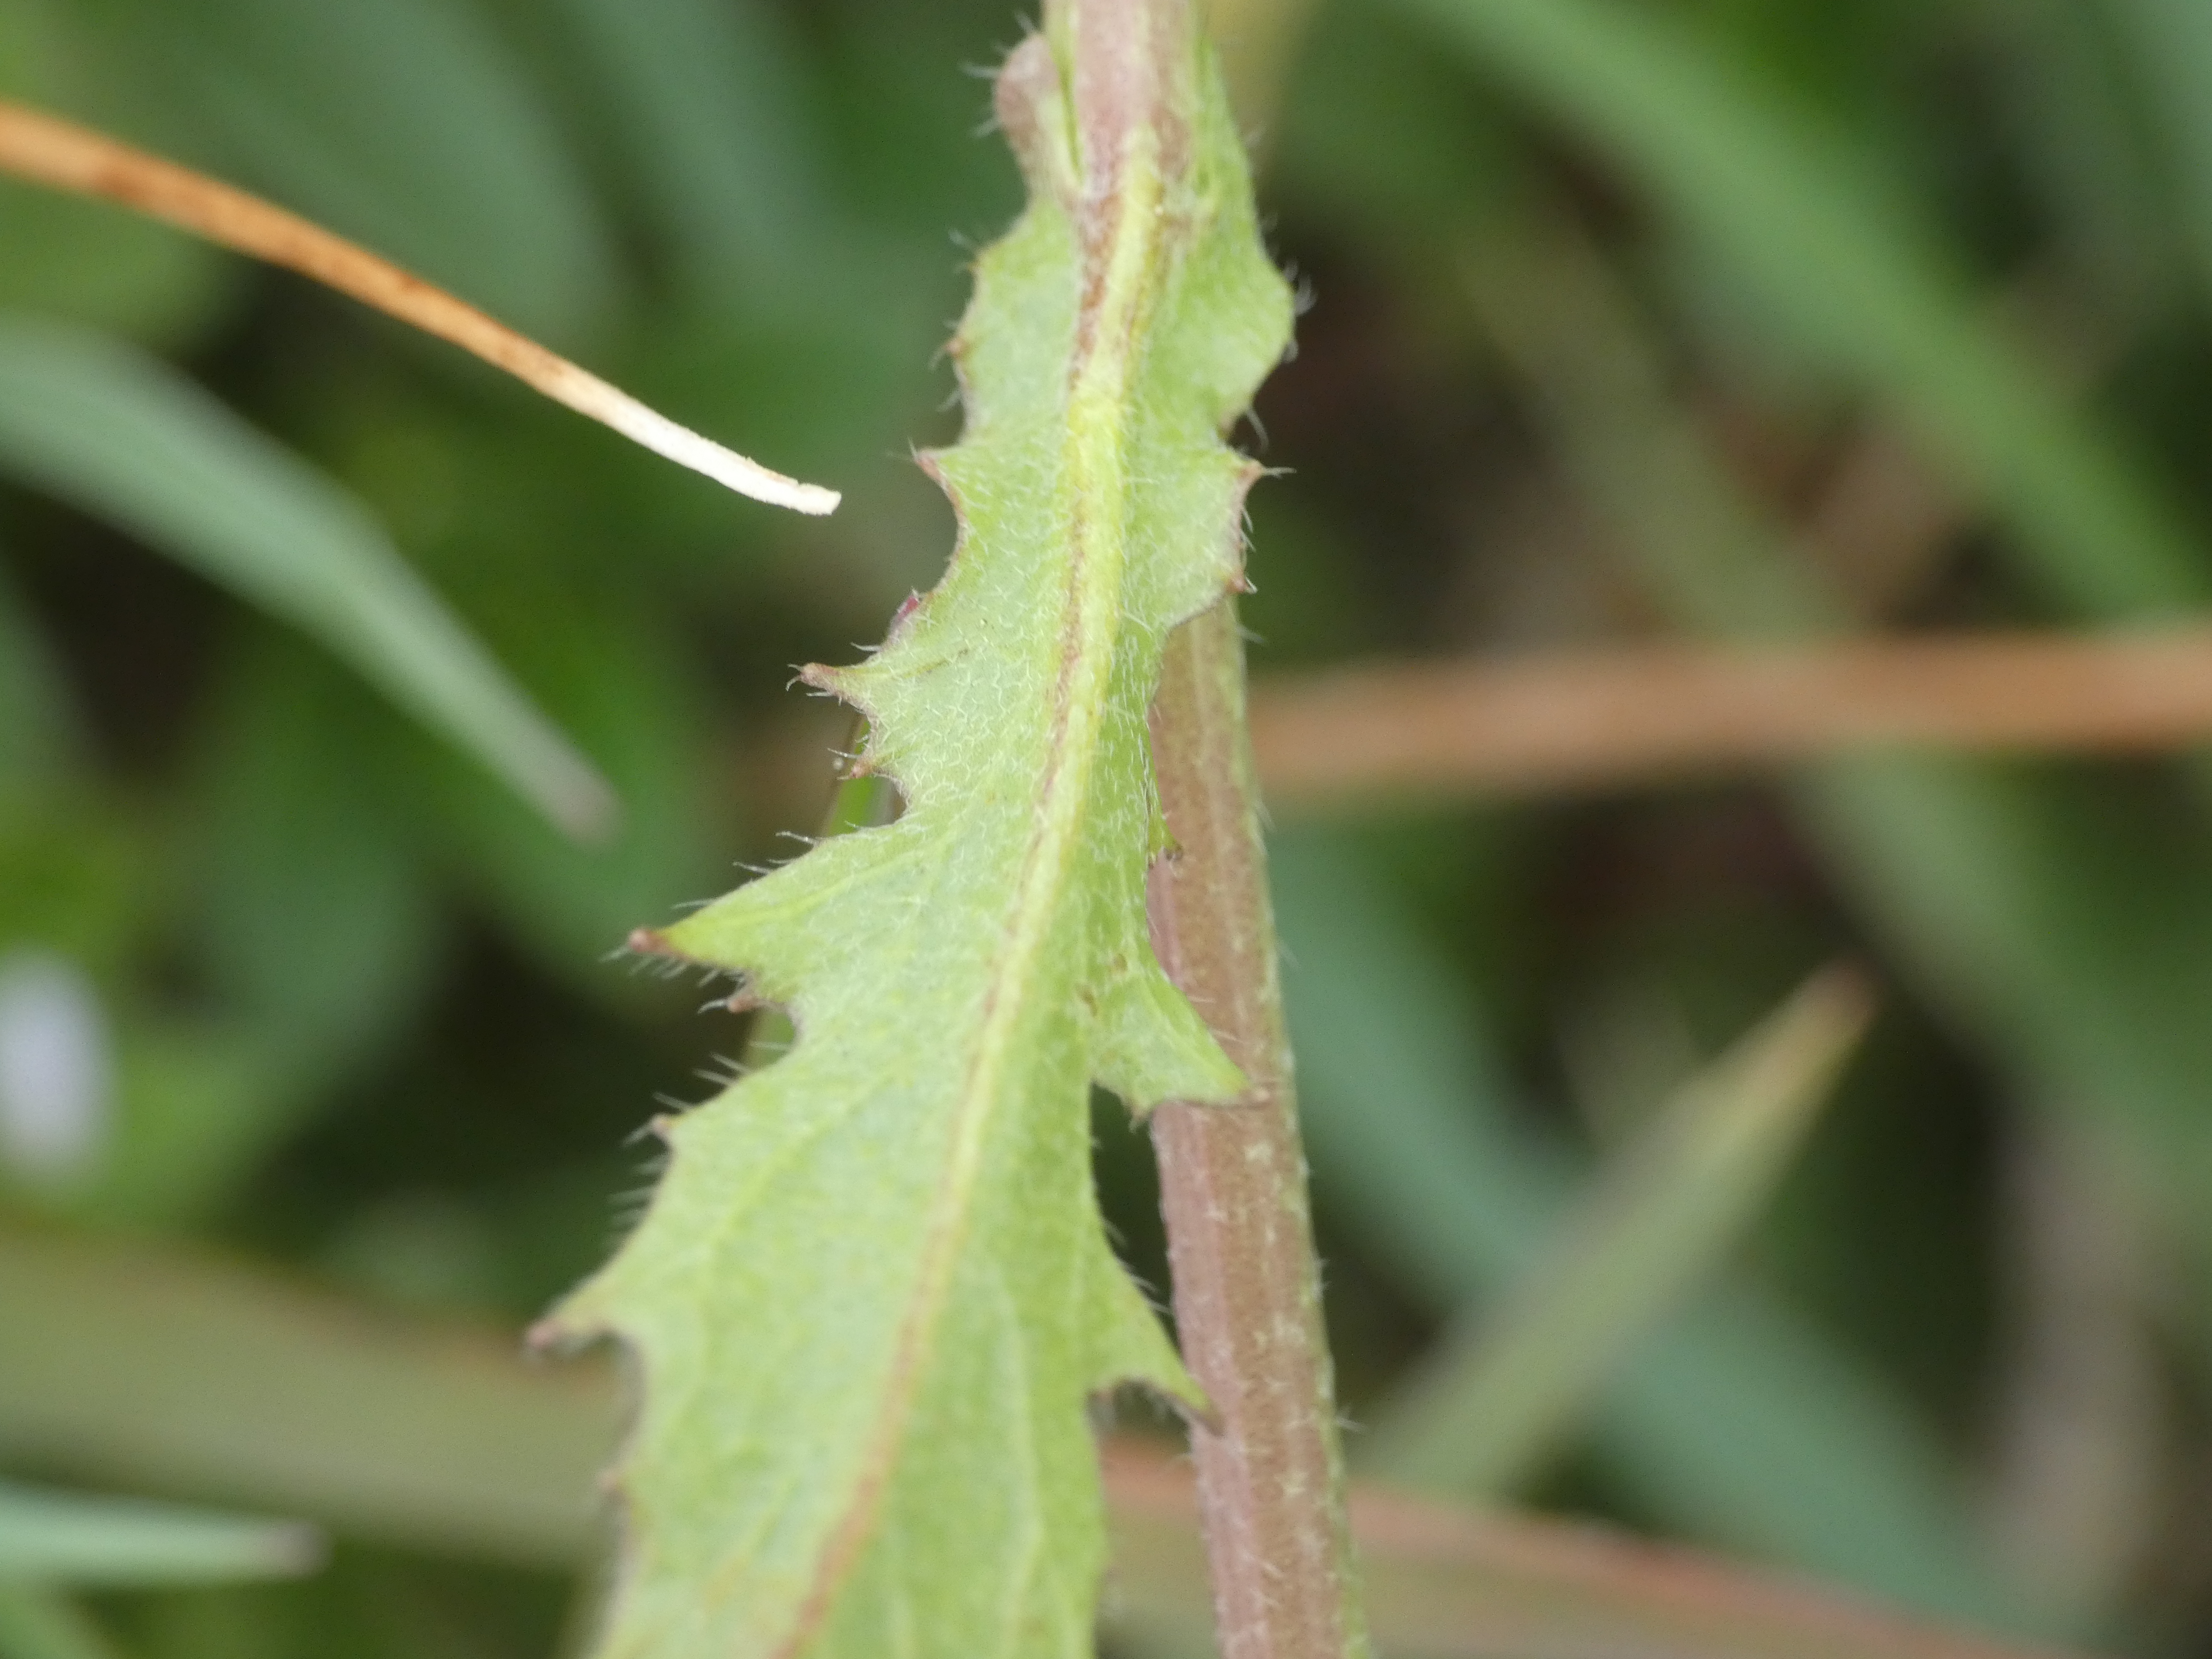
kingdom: Plantae
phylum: Tracheophyta
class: Magnoliopsida
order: Brassicales
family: Brassicaceae
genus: Capsella
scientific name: Capsella bursa-pastoris
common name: Hyrdetaske
